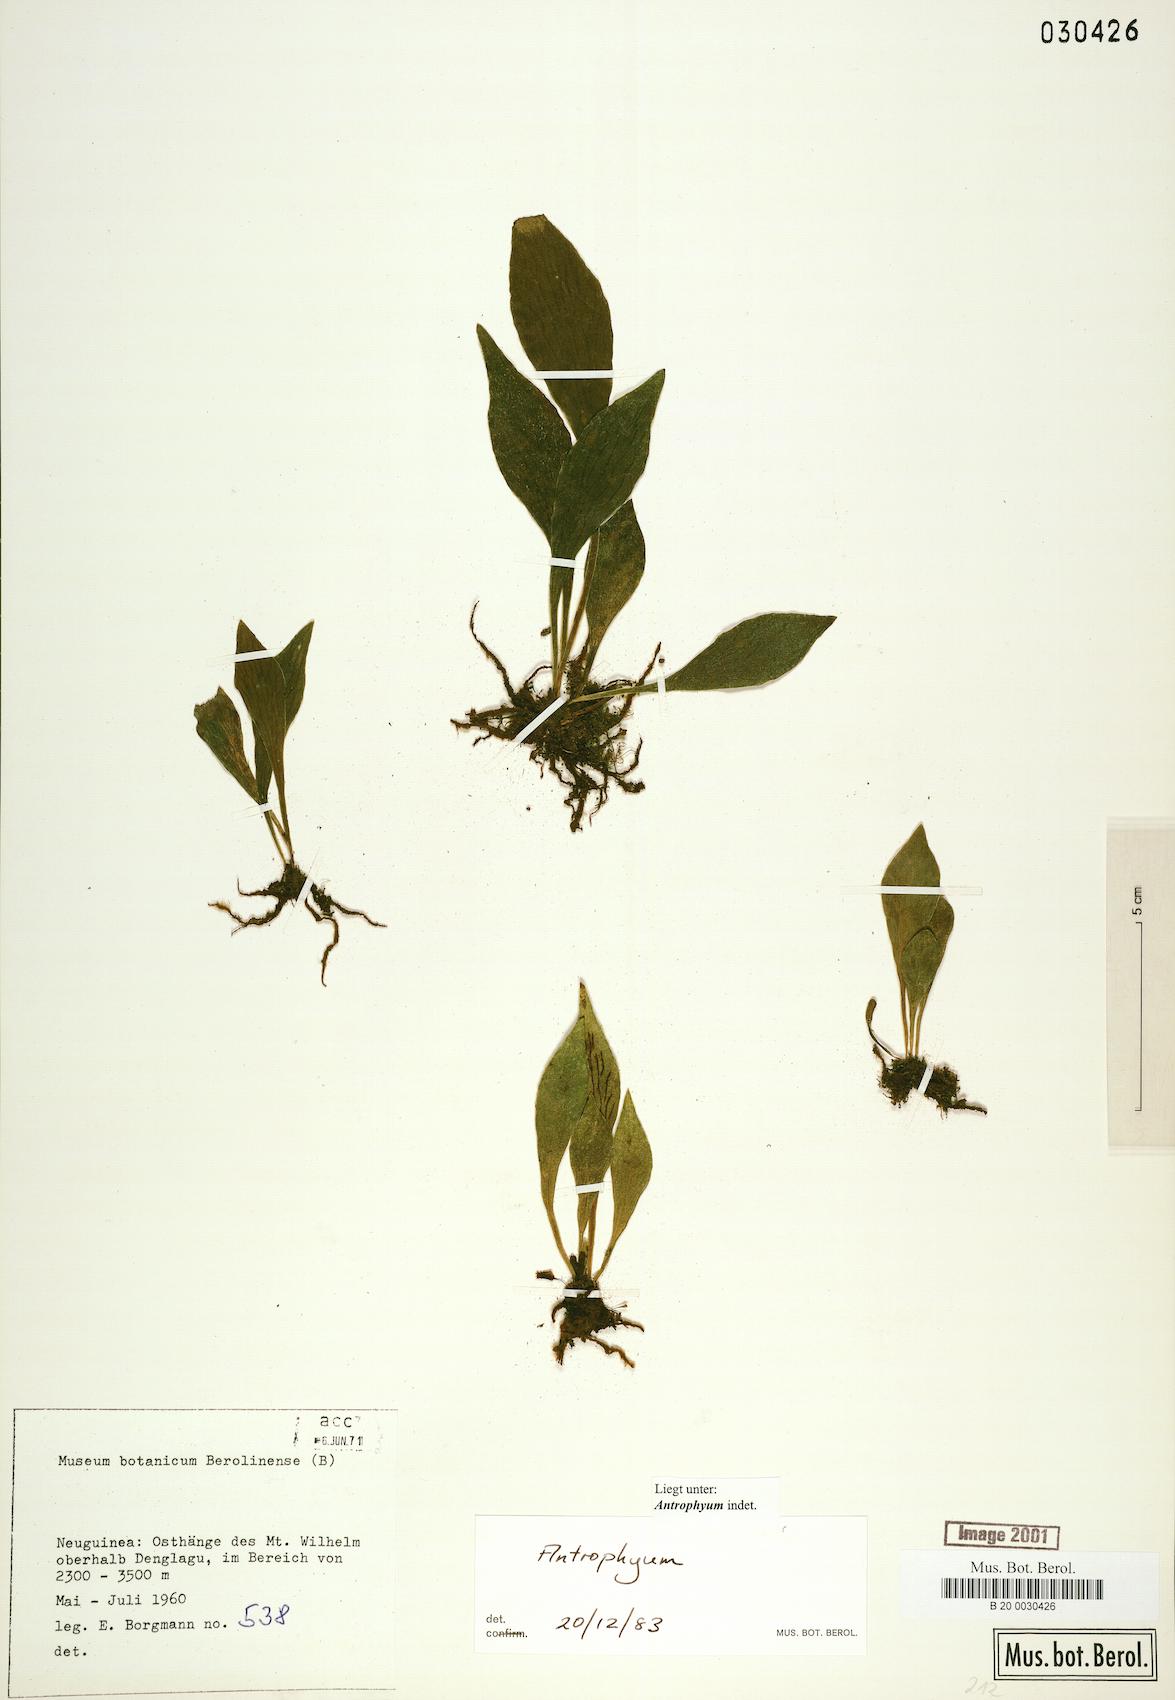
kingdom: Plantae
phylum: Tracheophyta
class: Polypodiopsida
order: Polypodiales
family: Pteridaceae
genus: Antrophyum
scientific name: Antrophyum
